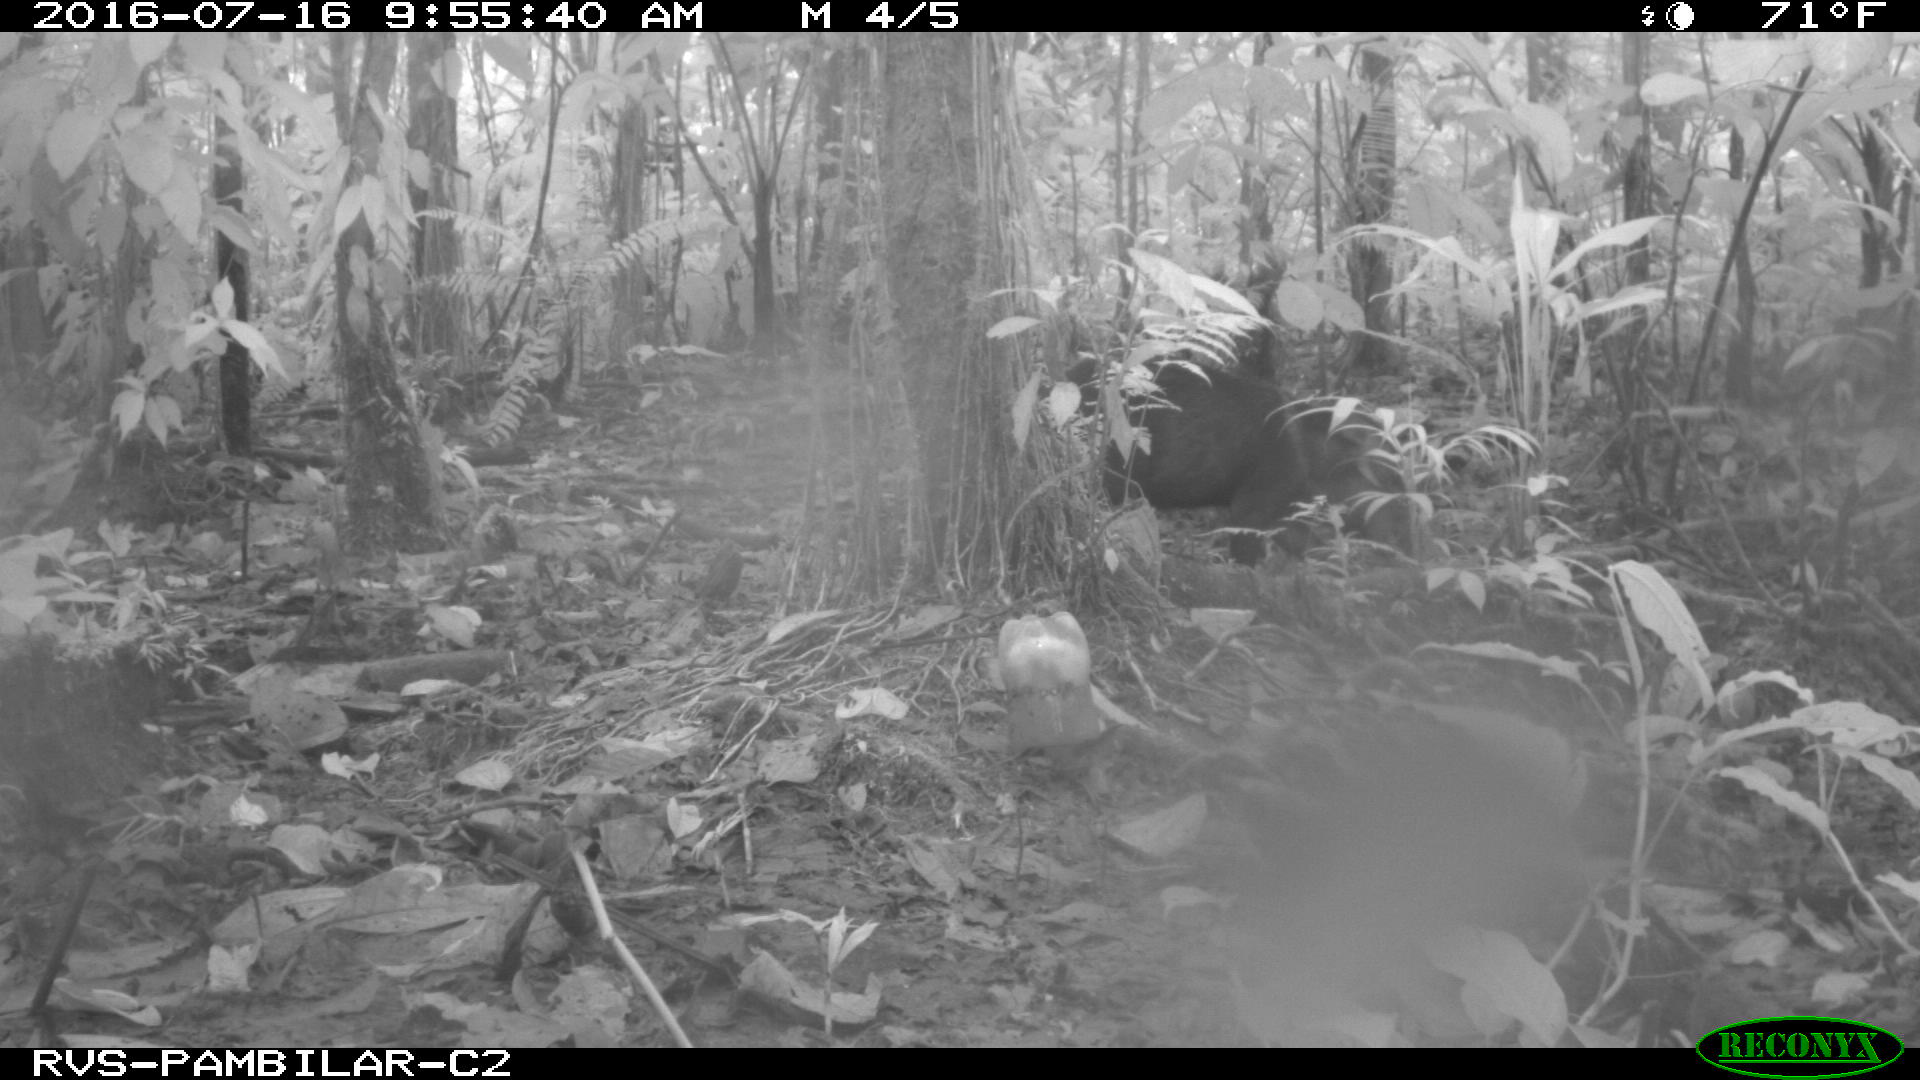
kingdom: Animalia
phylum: Chordata
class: Mammalia
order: Artiodactyla
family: Tayassuidae
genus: Pecari
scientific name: Pecari tajacu
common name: Collared peccary
